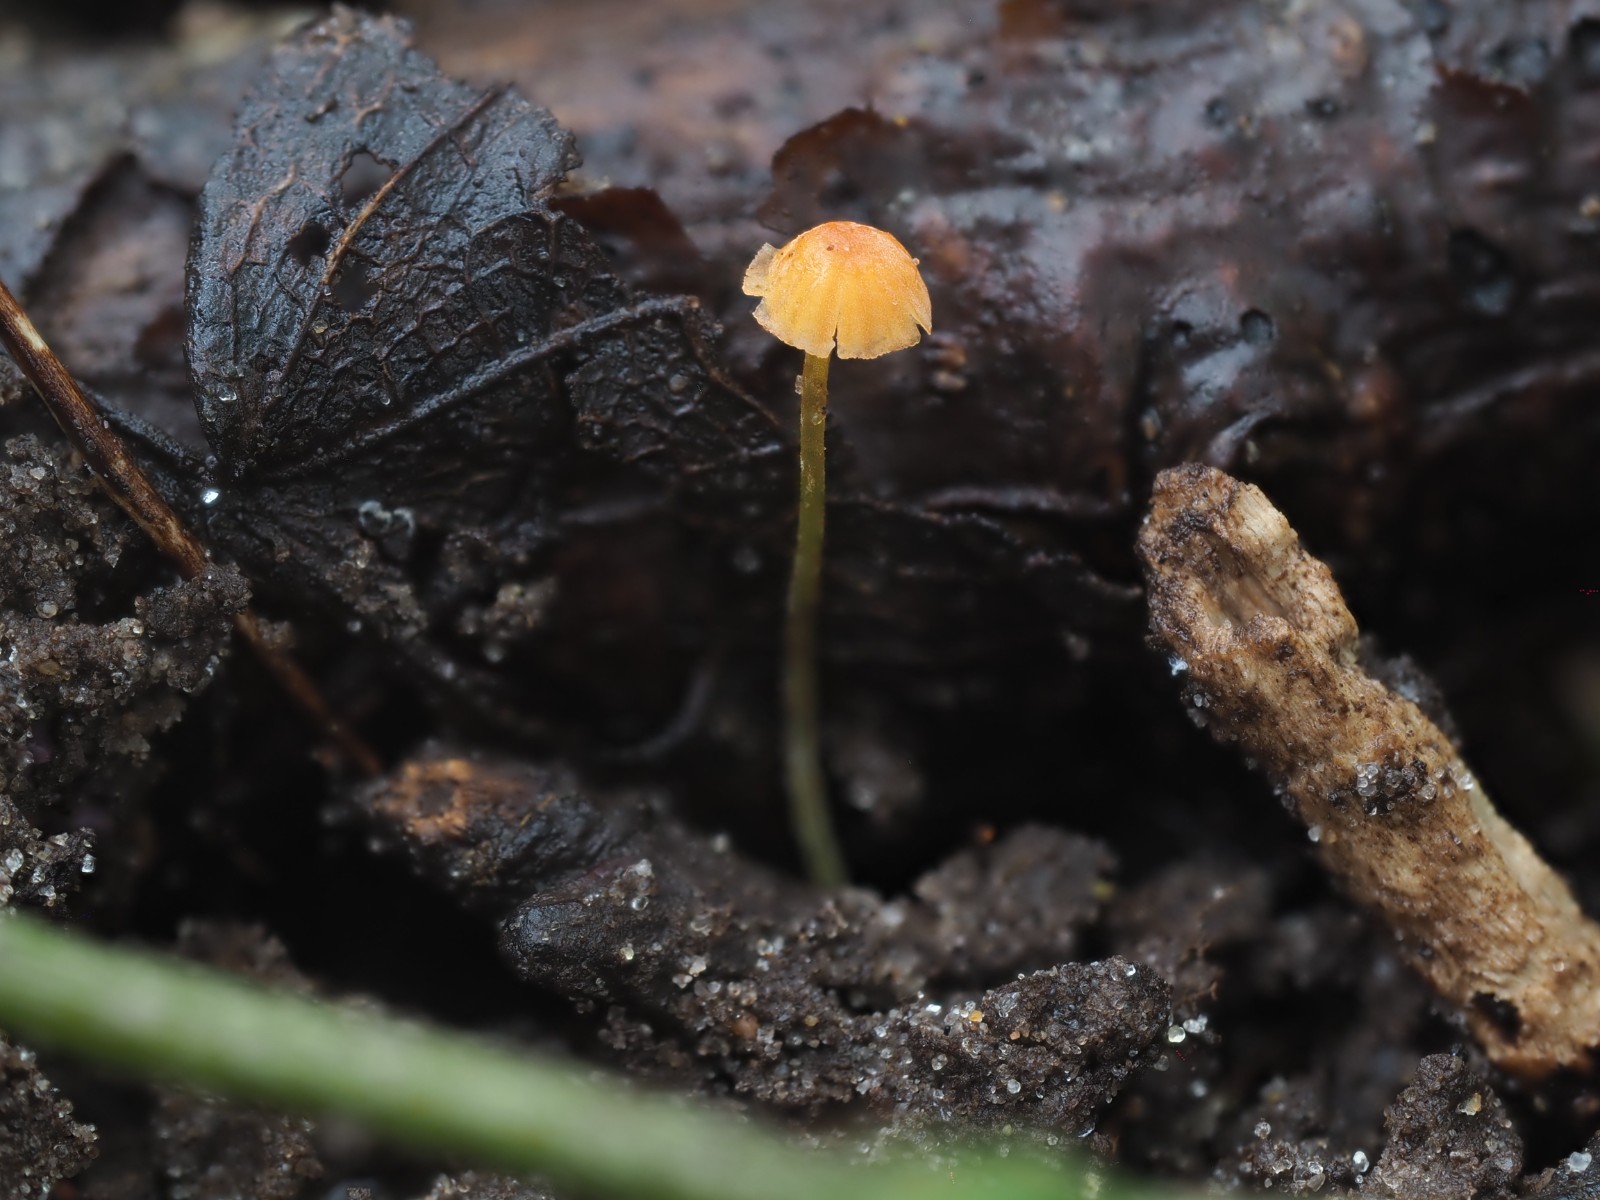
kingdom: Fungi
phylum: Basidiomycota
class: Agaricomycetes
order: Agaricales
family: Mycenaceae
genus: Mycena
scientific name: Mycena acicula
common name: orange huesvamp
